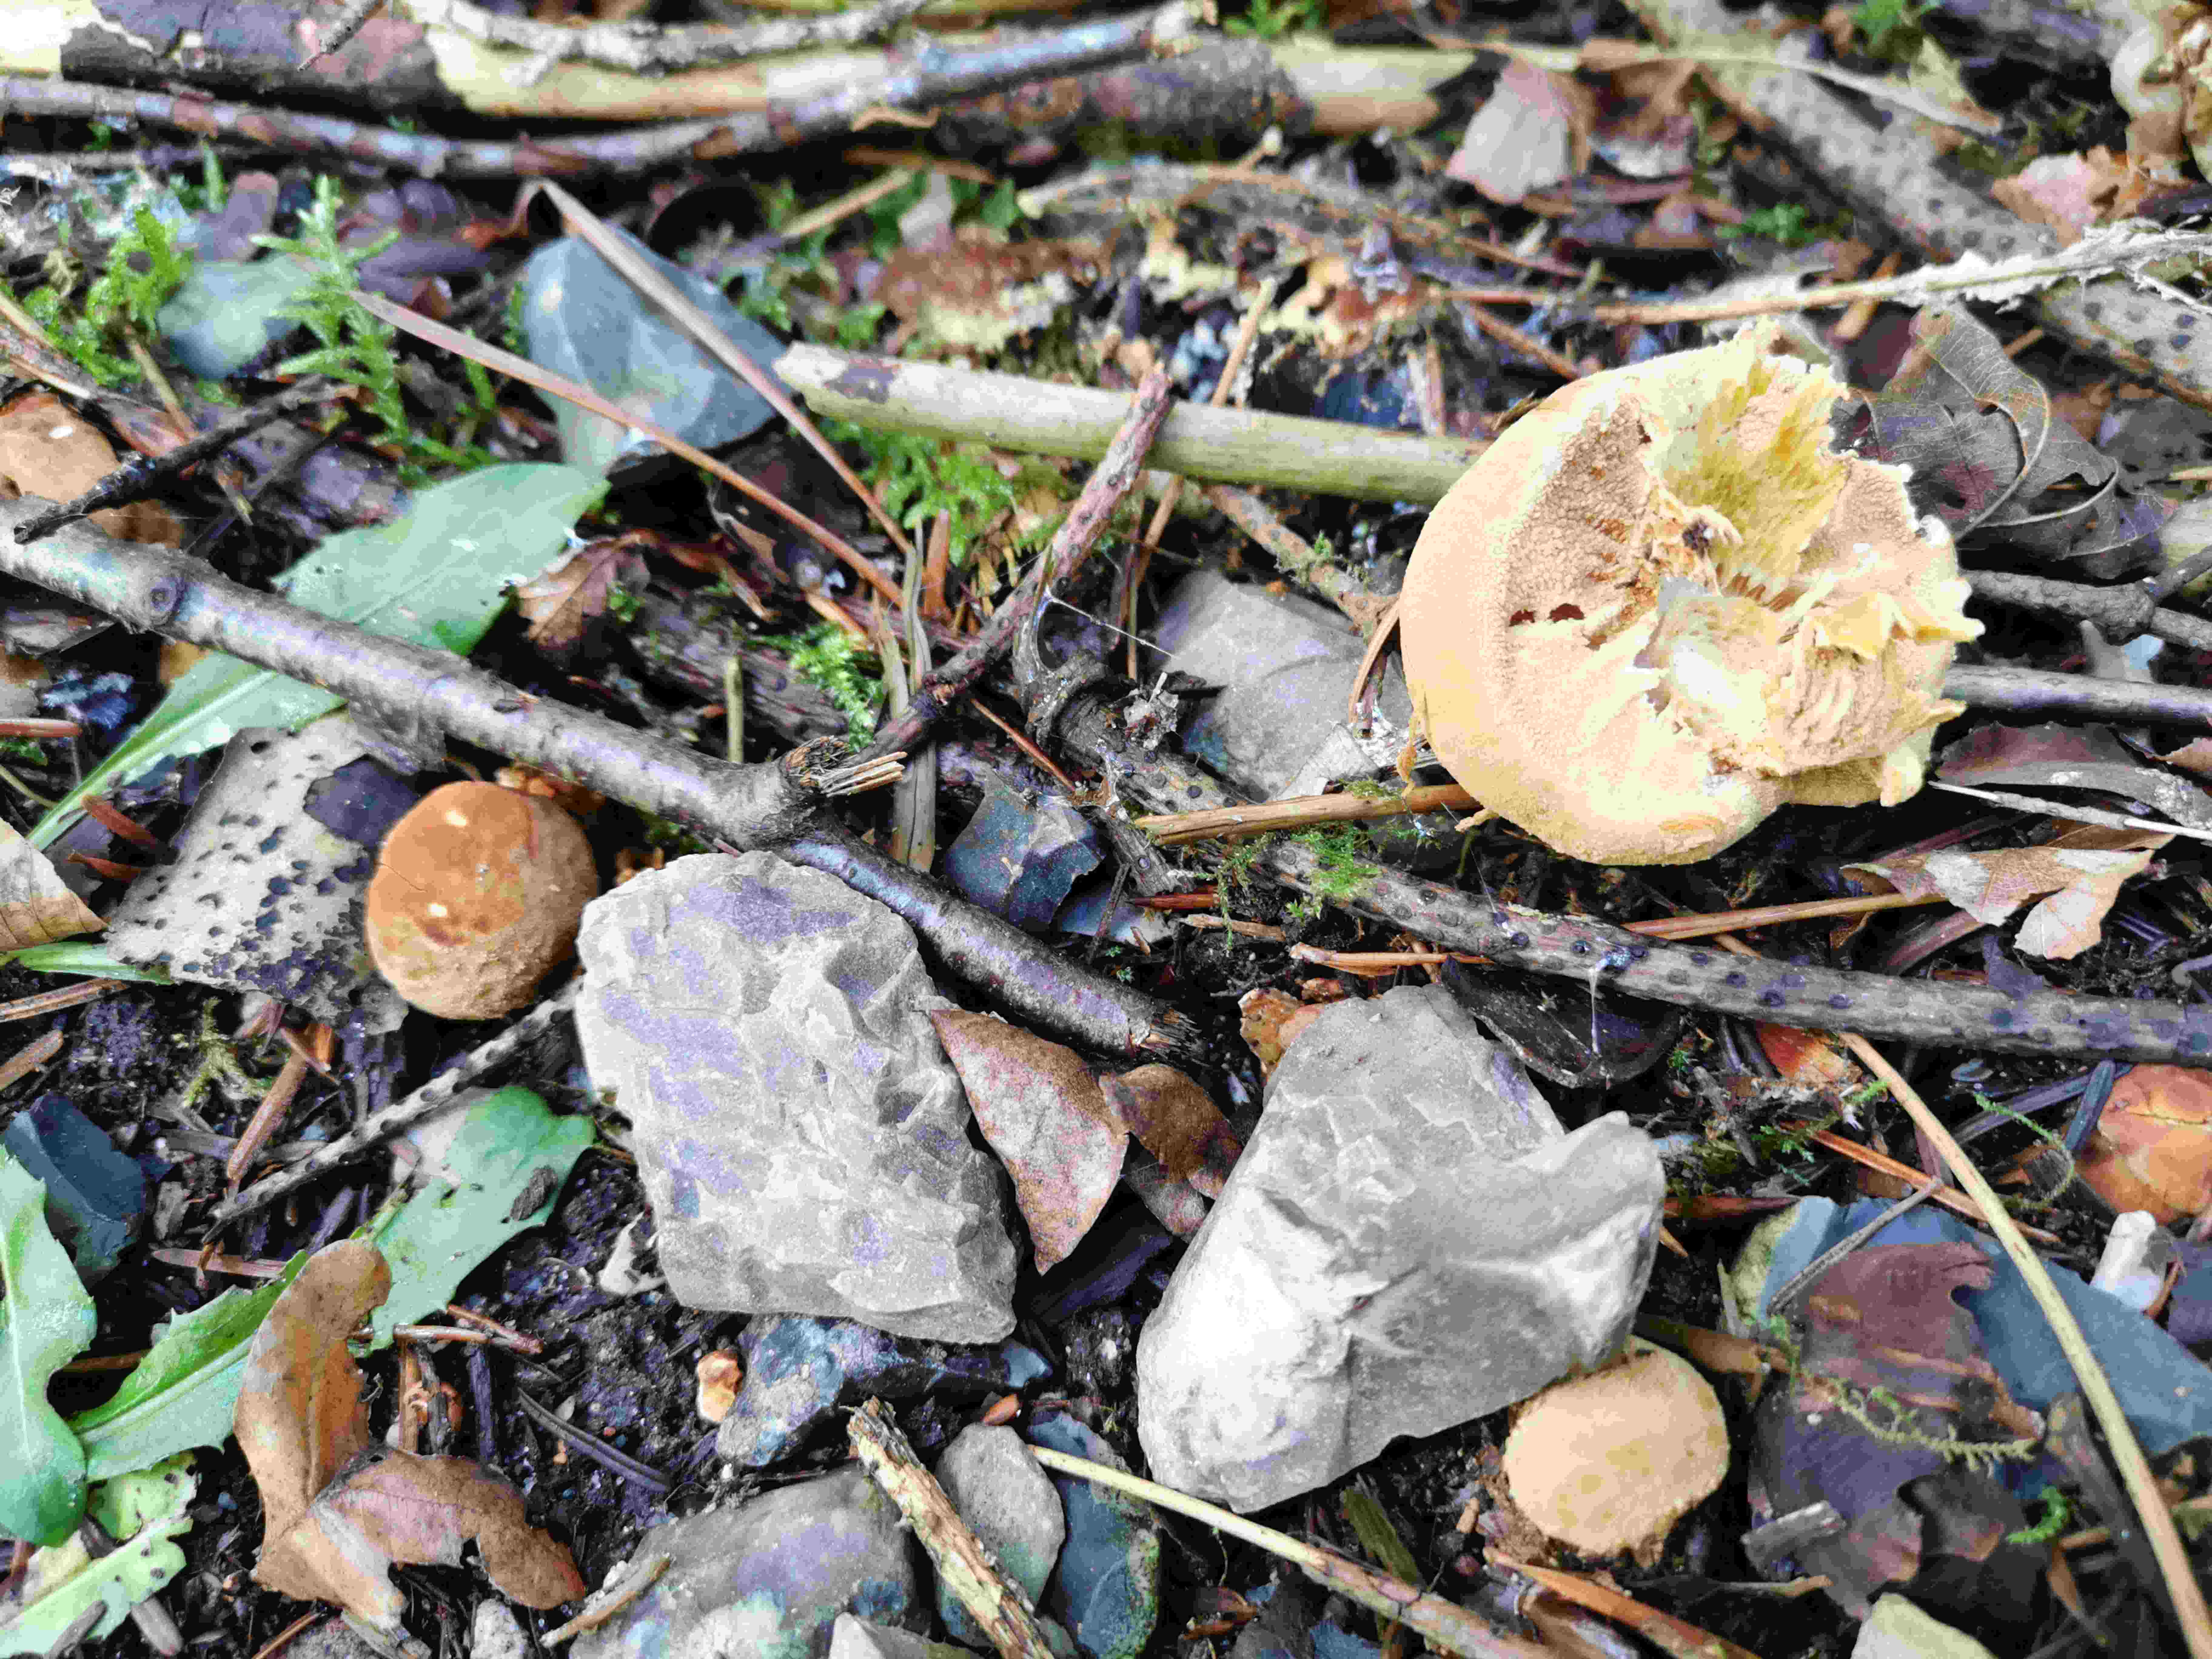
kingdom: Fungi
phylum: Basidiomycota
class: Agaricomycetes
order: Agaricales
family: Tricholomataceae
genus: Phaeolepiota
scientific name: Phaeolepiota aurea
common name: gyldenhat
